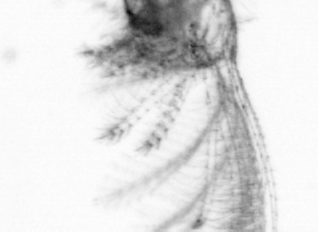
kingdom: Animalia
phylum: Arthropoda
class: Maxillopoda
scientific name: Maxillopoda
